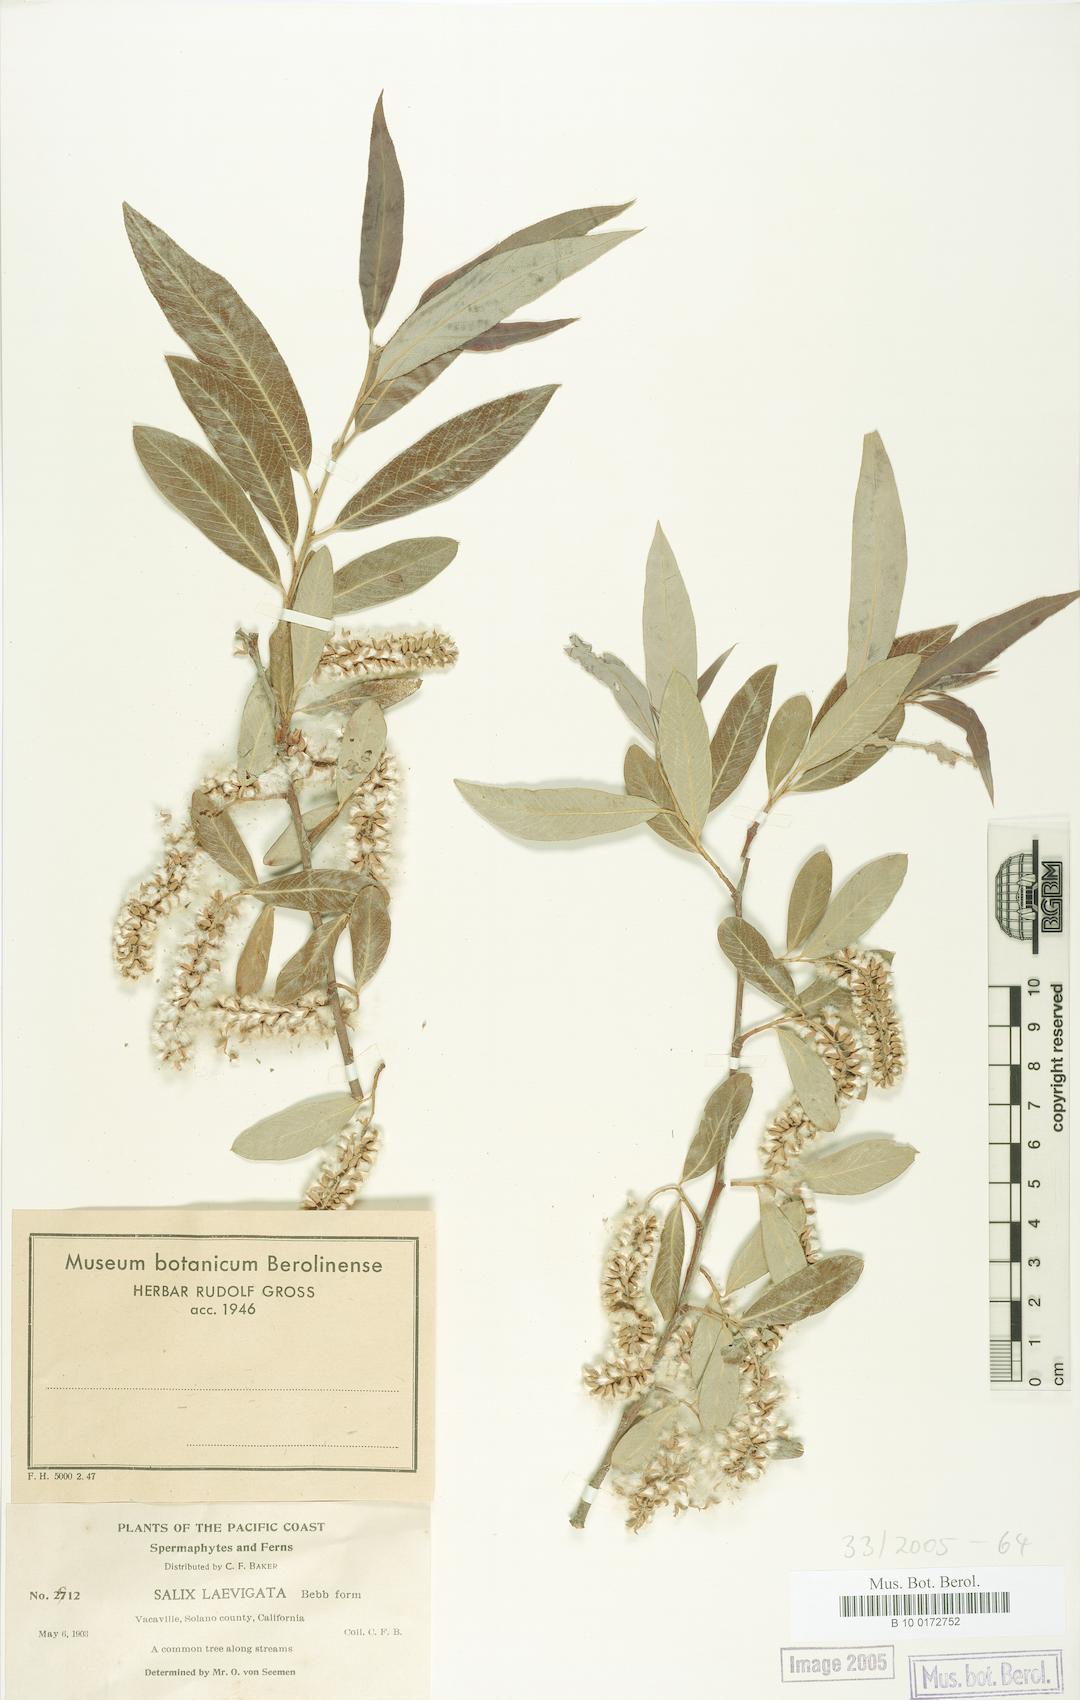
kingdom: Plantae
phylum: Tracheophyta
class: Magnoliopsida
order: Malpighiales
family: Salicaceae
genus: Salix
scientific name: Salix laevigata
